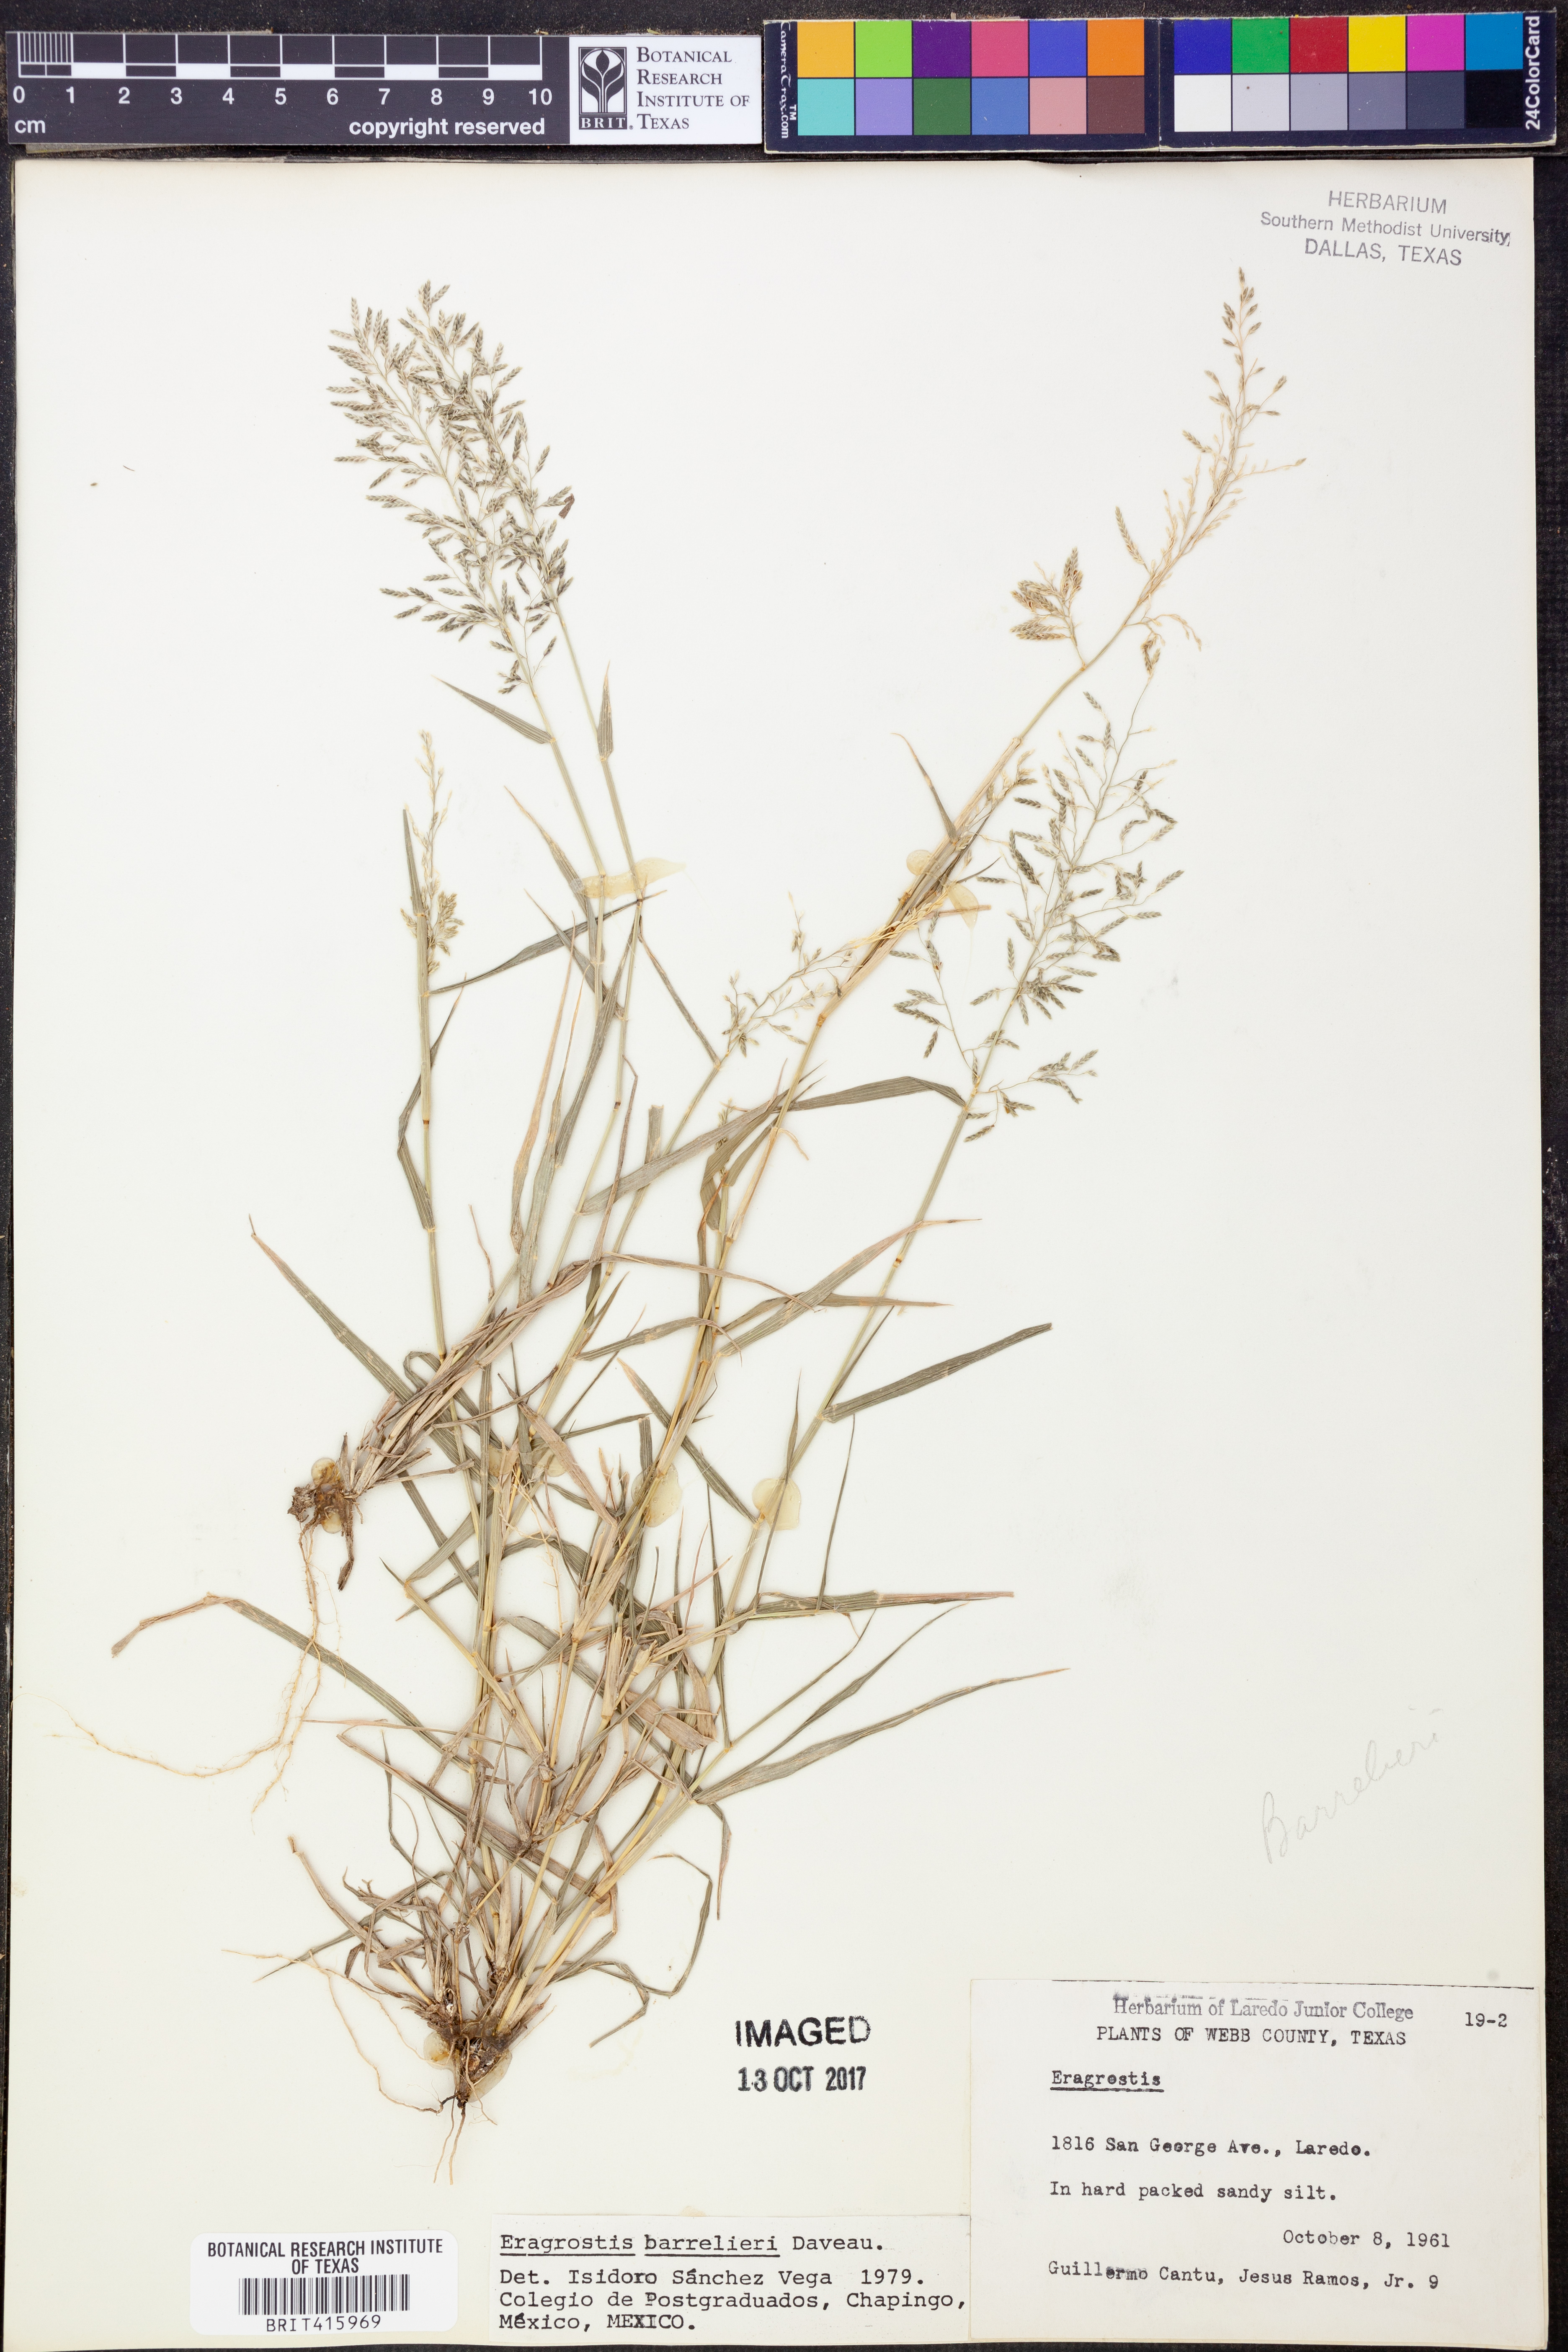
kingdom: Plantae
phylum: Tracheophyta
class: Liliopsida
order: Poales
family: Poaceae
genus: Eragrostis
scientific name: Eragrostis barrelieri
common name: Mediterranean lovegrass
